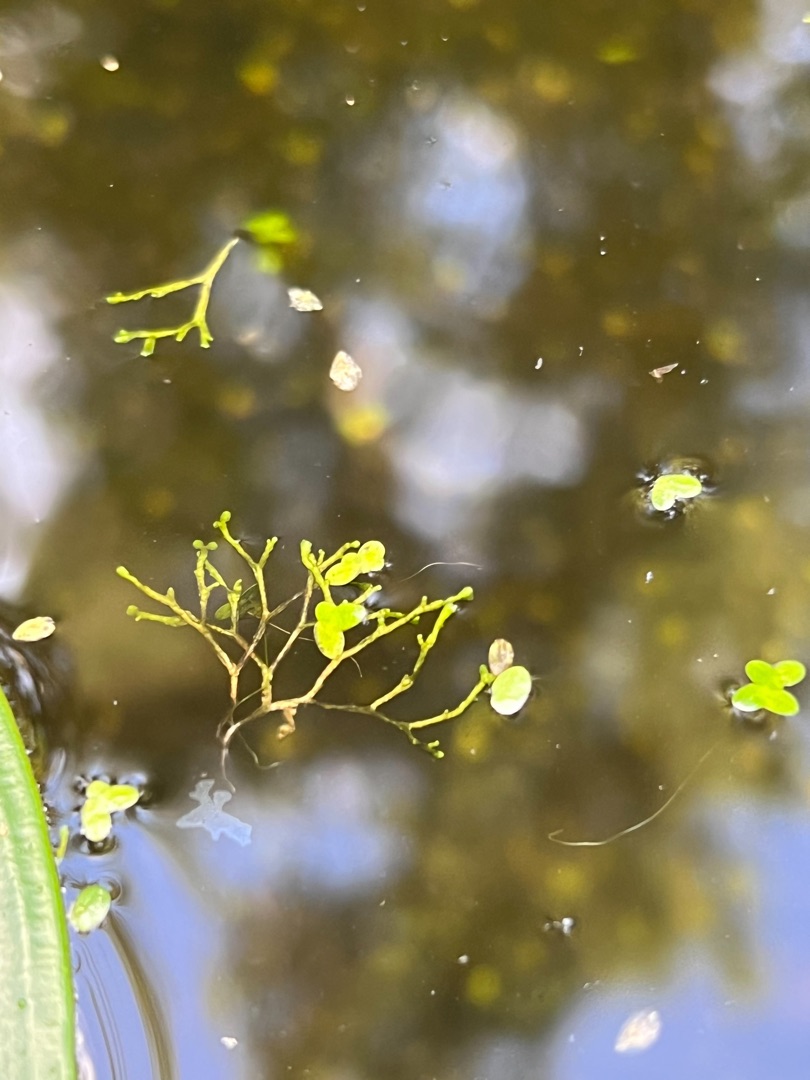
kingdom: Plantae
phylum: Marchantiophyta
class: Marchantiopsida
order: Marchantiales
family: Ricciaceae
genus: Riccia
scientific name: Riccia fluitans
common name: Svømmende stjerneløv
